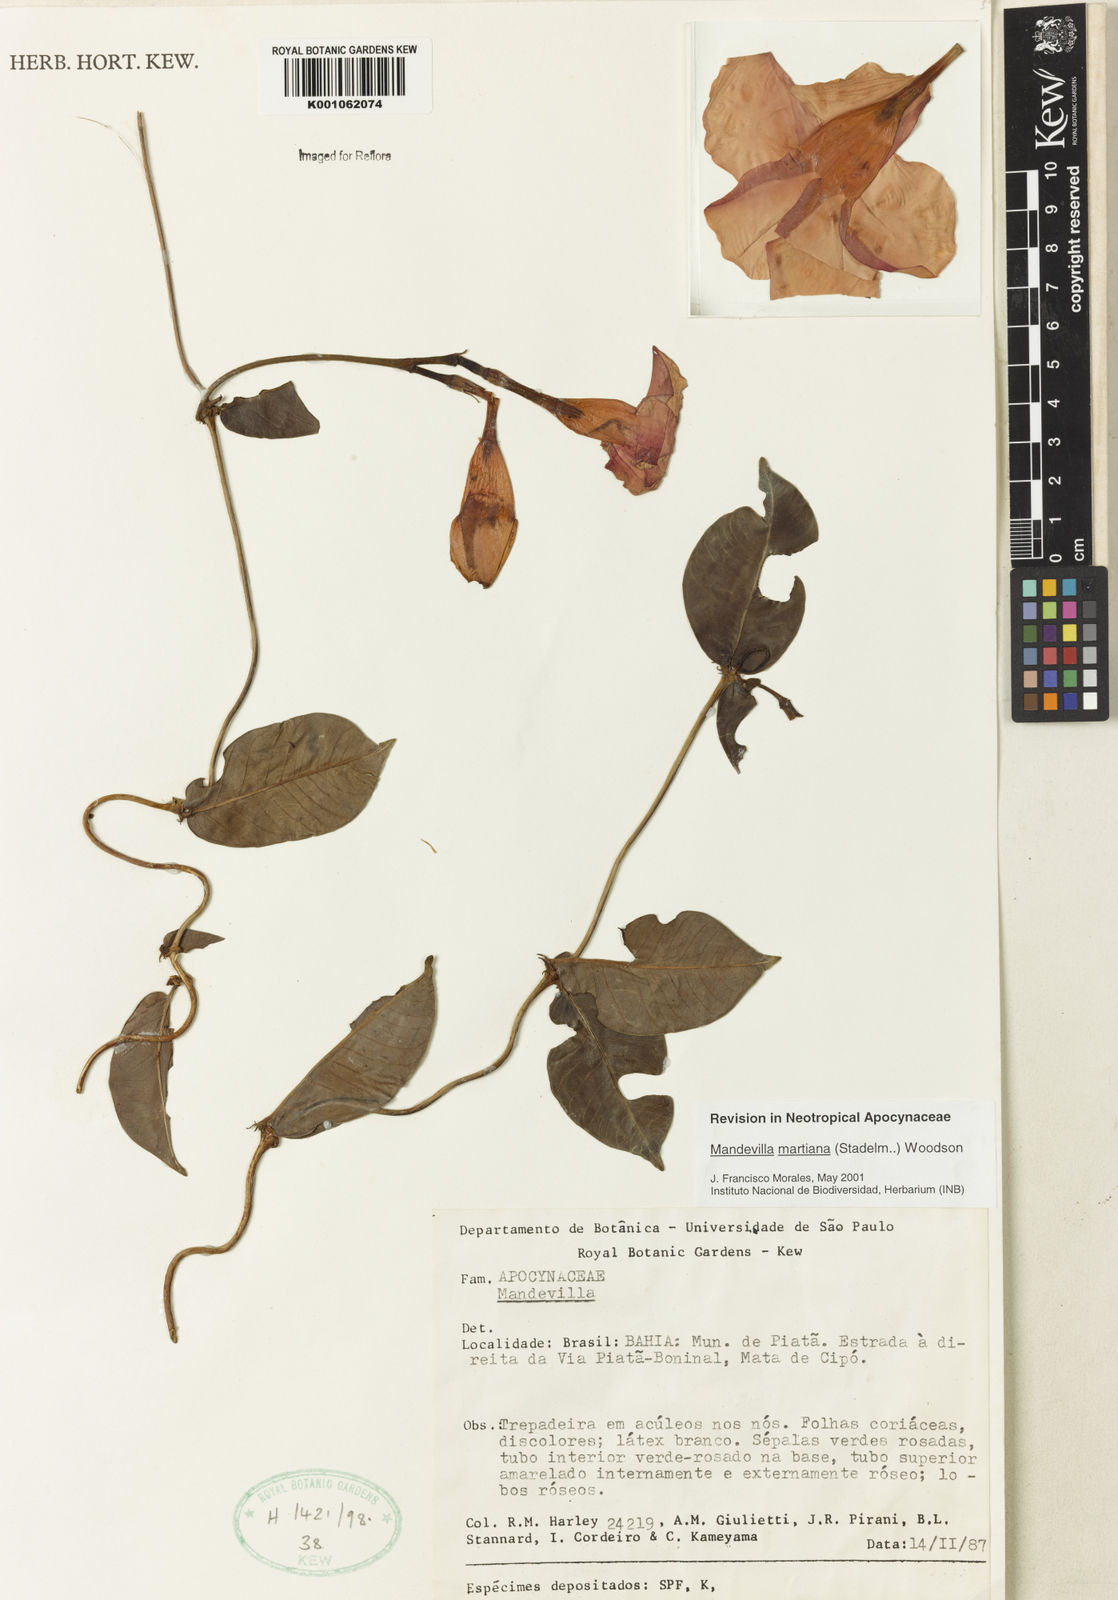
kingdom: Plantae
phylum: Tracheophyta
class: Magnoliopsida
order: Gentianales
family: Apocynaceae
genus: Mandevilla
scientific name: Mandevilla martiana
